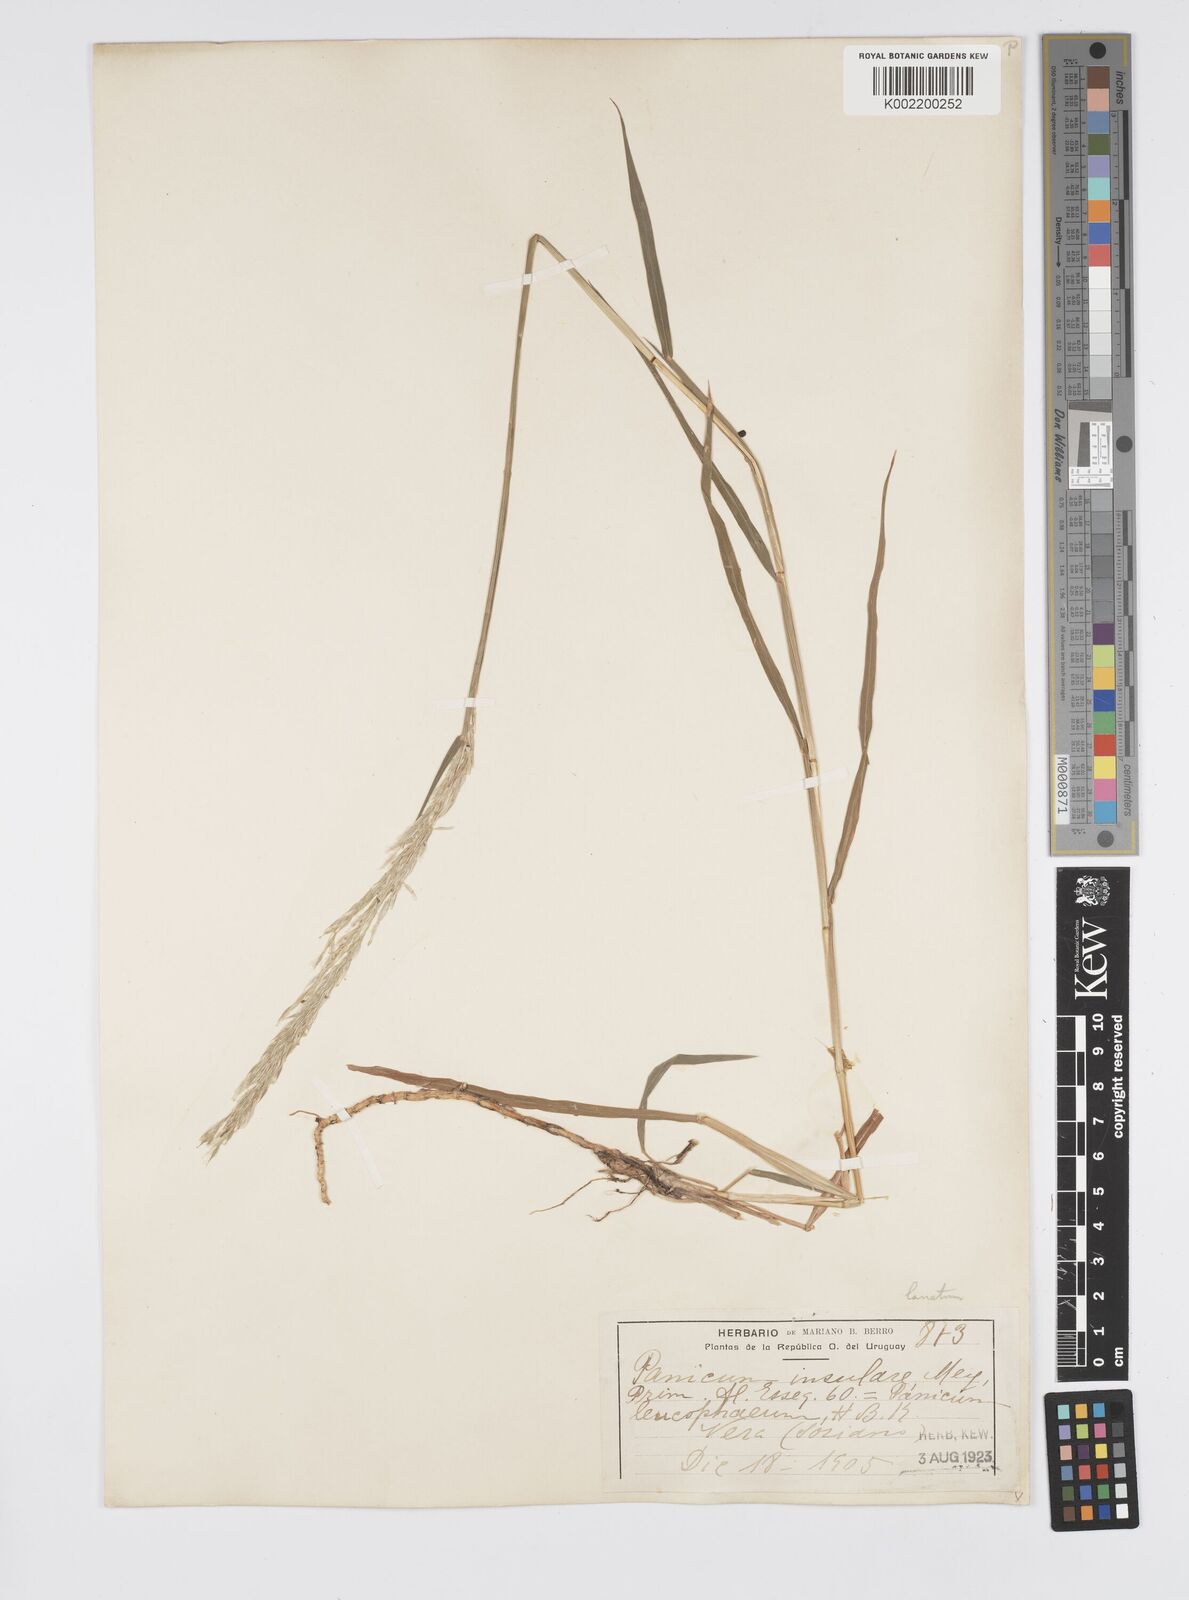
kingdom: Plantae
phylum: Tracheophyta
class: Liliopsida
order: Poales
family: Poaceae
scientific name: Poaceae
